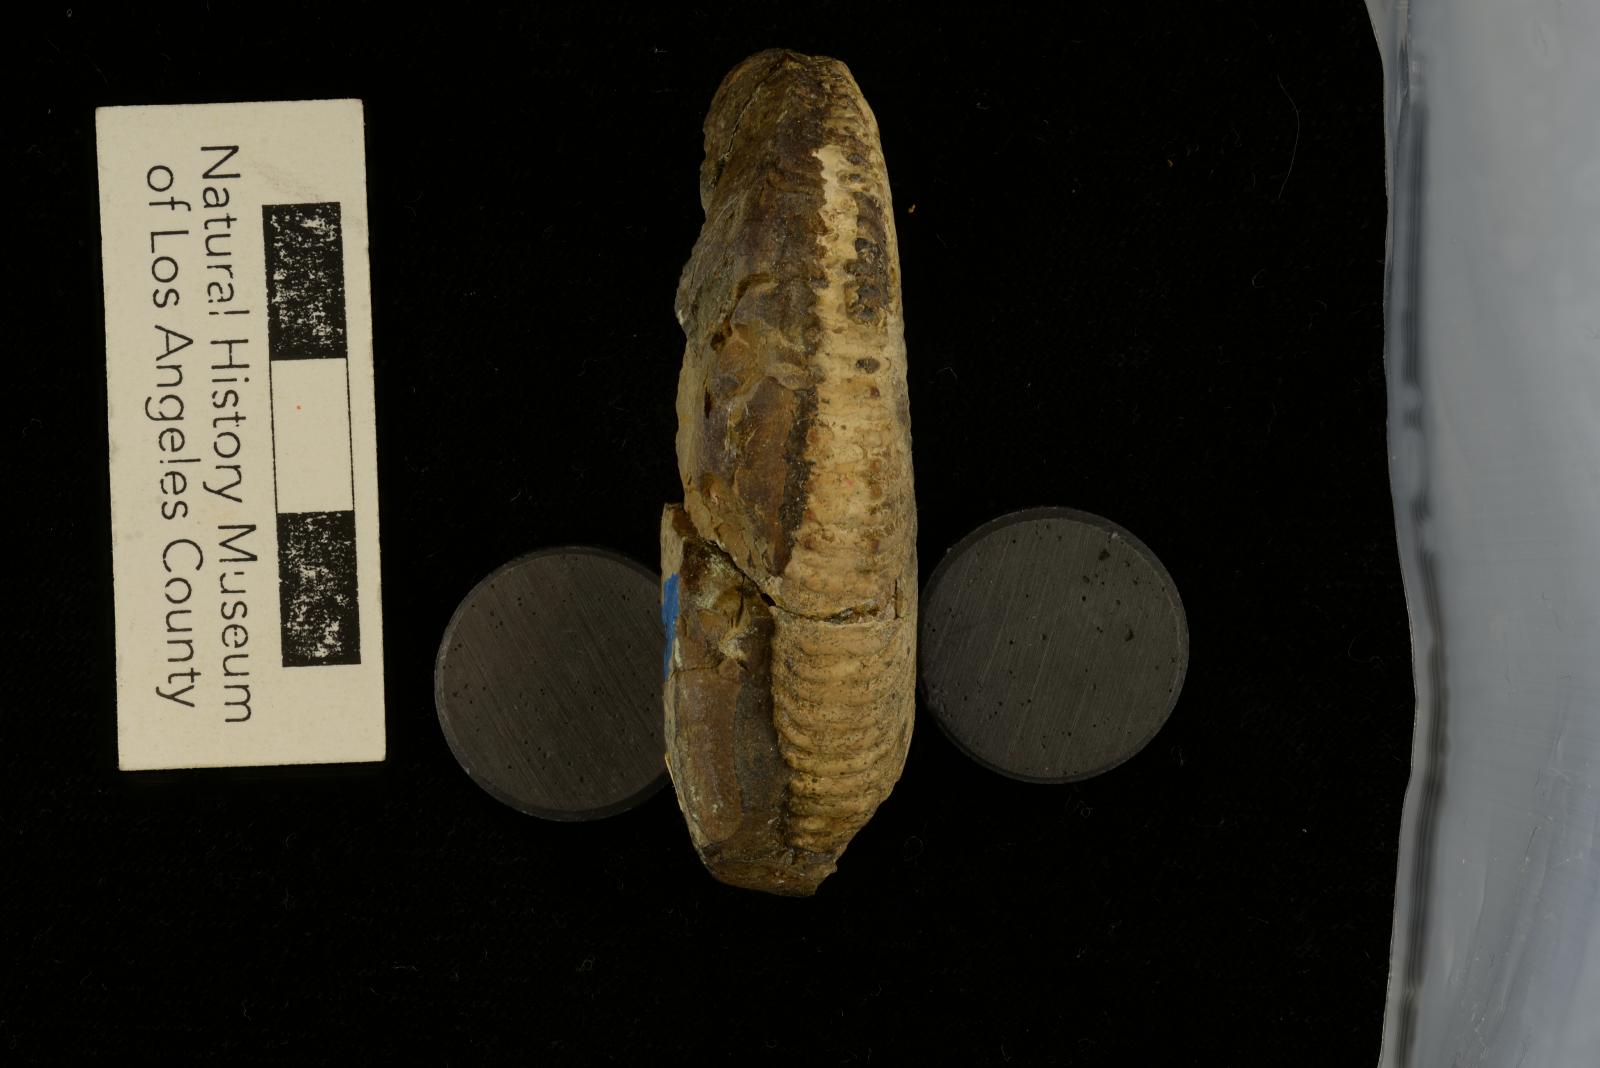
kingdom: Animalia
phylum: Mollusca
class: Cephalopoda
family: Megacrioceratidae
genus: Shasticrioceras
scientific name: Shasticrioceras patricki
